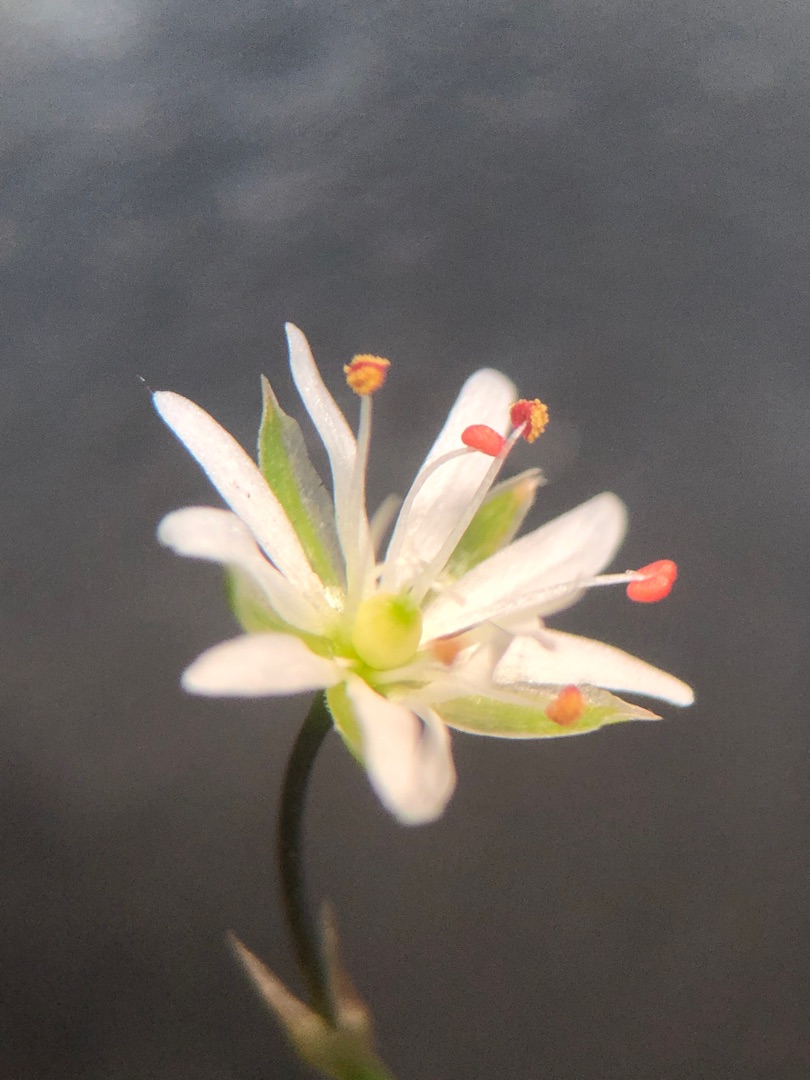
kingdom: Plantae
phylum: Tracheophyta
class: Magnoliopsida
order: Caryophyllales
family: Caryophyllaceae
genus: Stellaria
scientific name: Stellaria graminea
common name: Græsbladet fladstjerne
